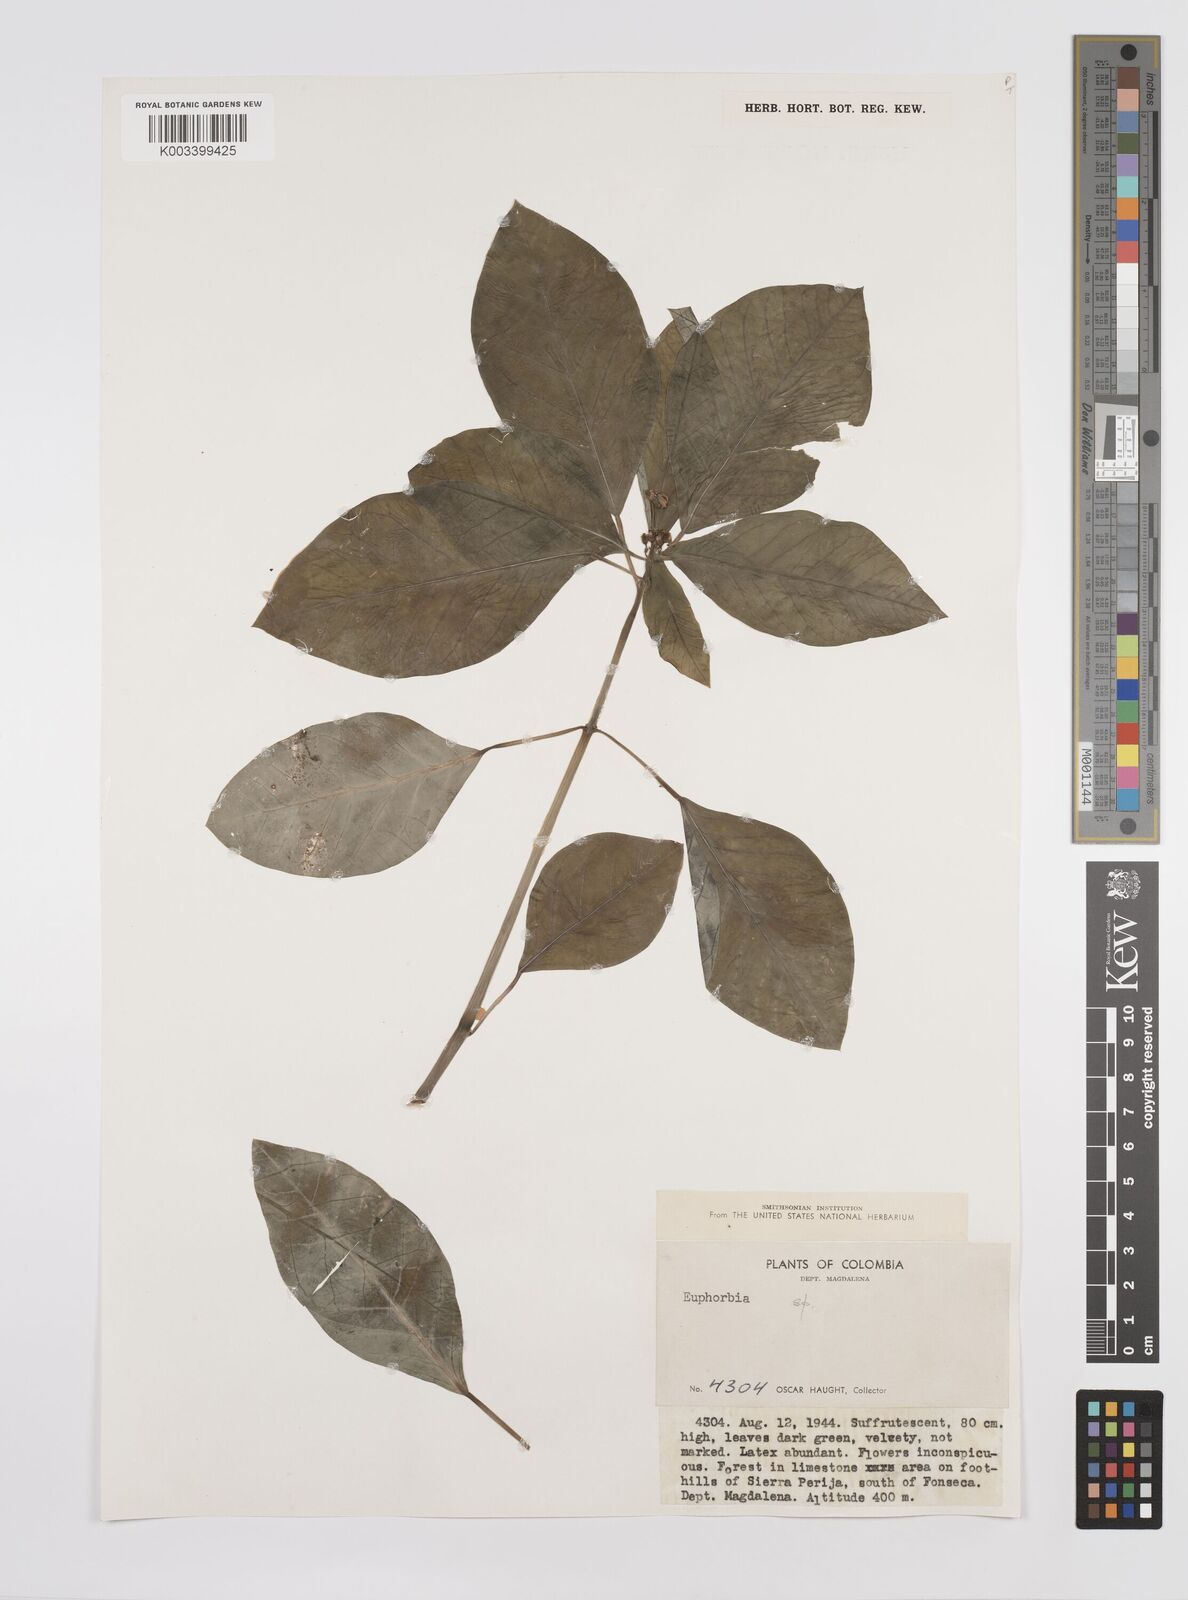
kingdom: Plantae
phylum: Tracheophyta
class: Magnoliopsida
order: Malpighiales
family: Euphorbiaceae
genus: Euphorbia
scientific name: Euphorbia
